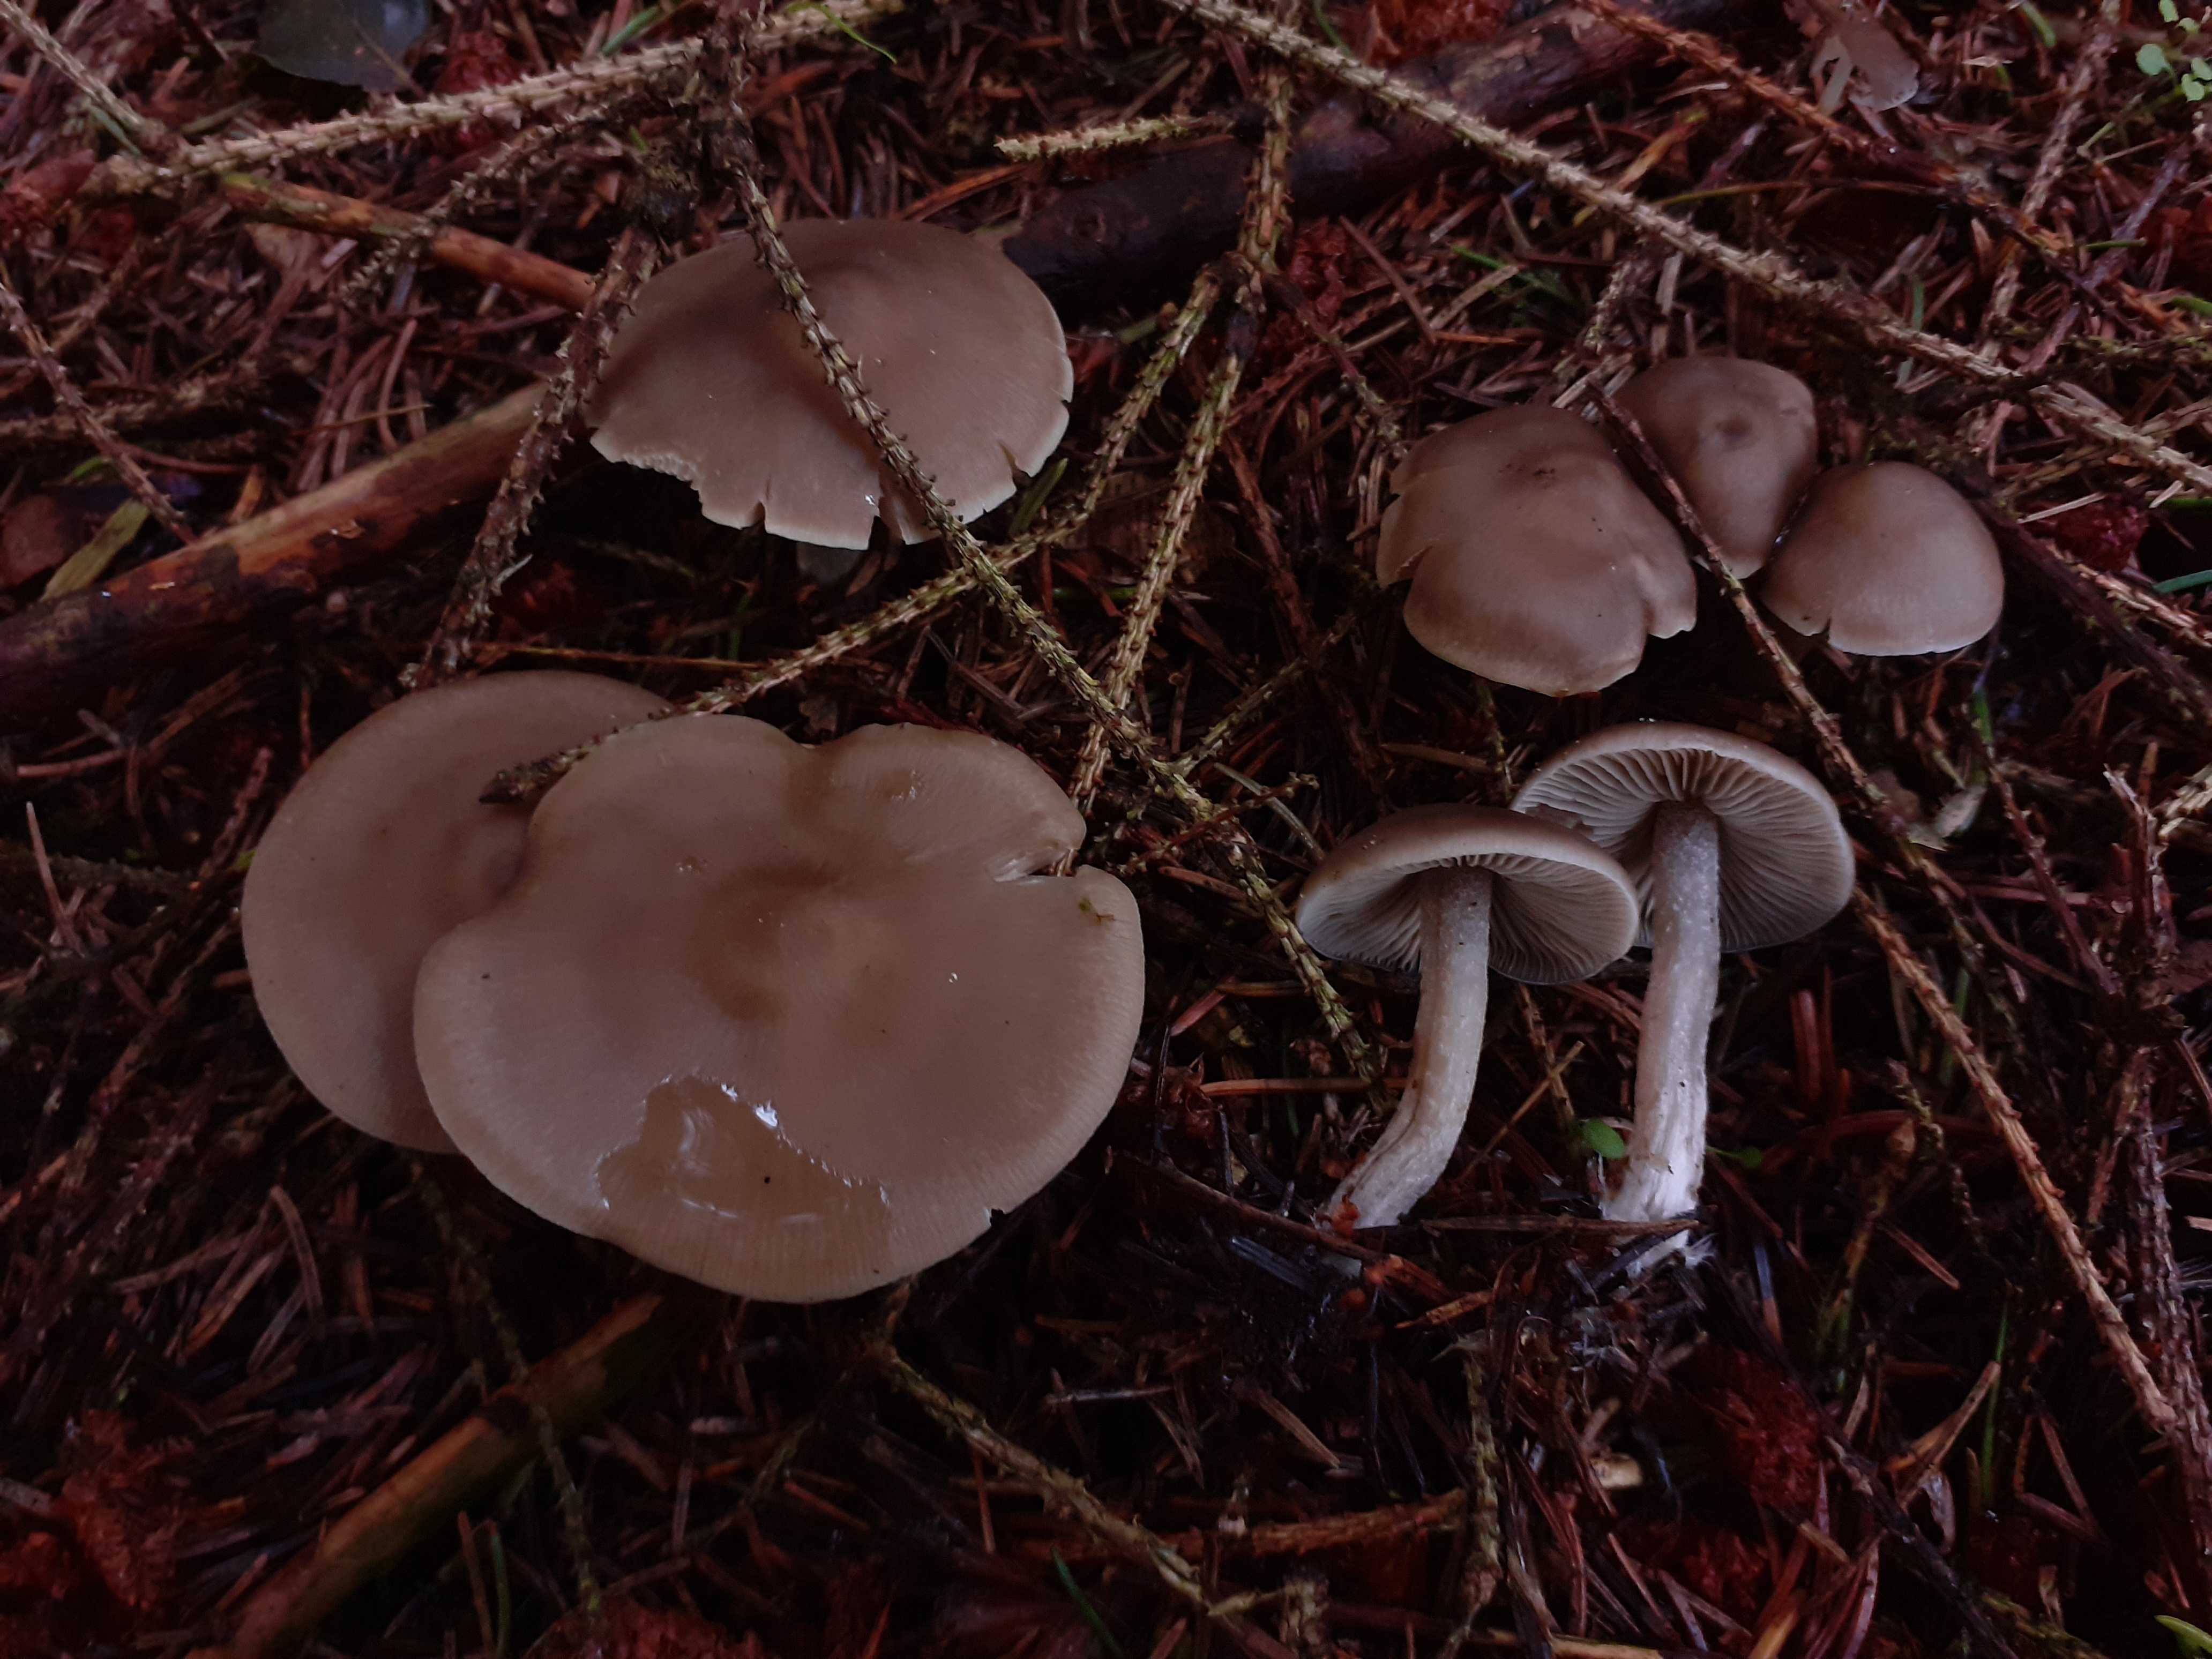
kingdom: Fungi
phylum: Basidiomycota
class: Agaricomycetes
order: Agaricales
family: Lyophyllaceae
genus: Lyophyllum
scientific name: Lyophyllum
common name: gråblad
